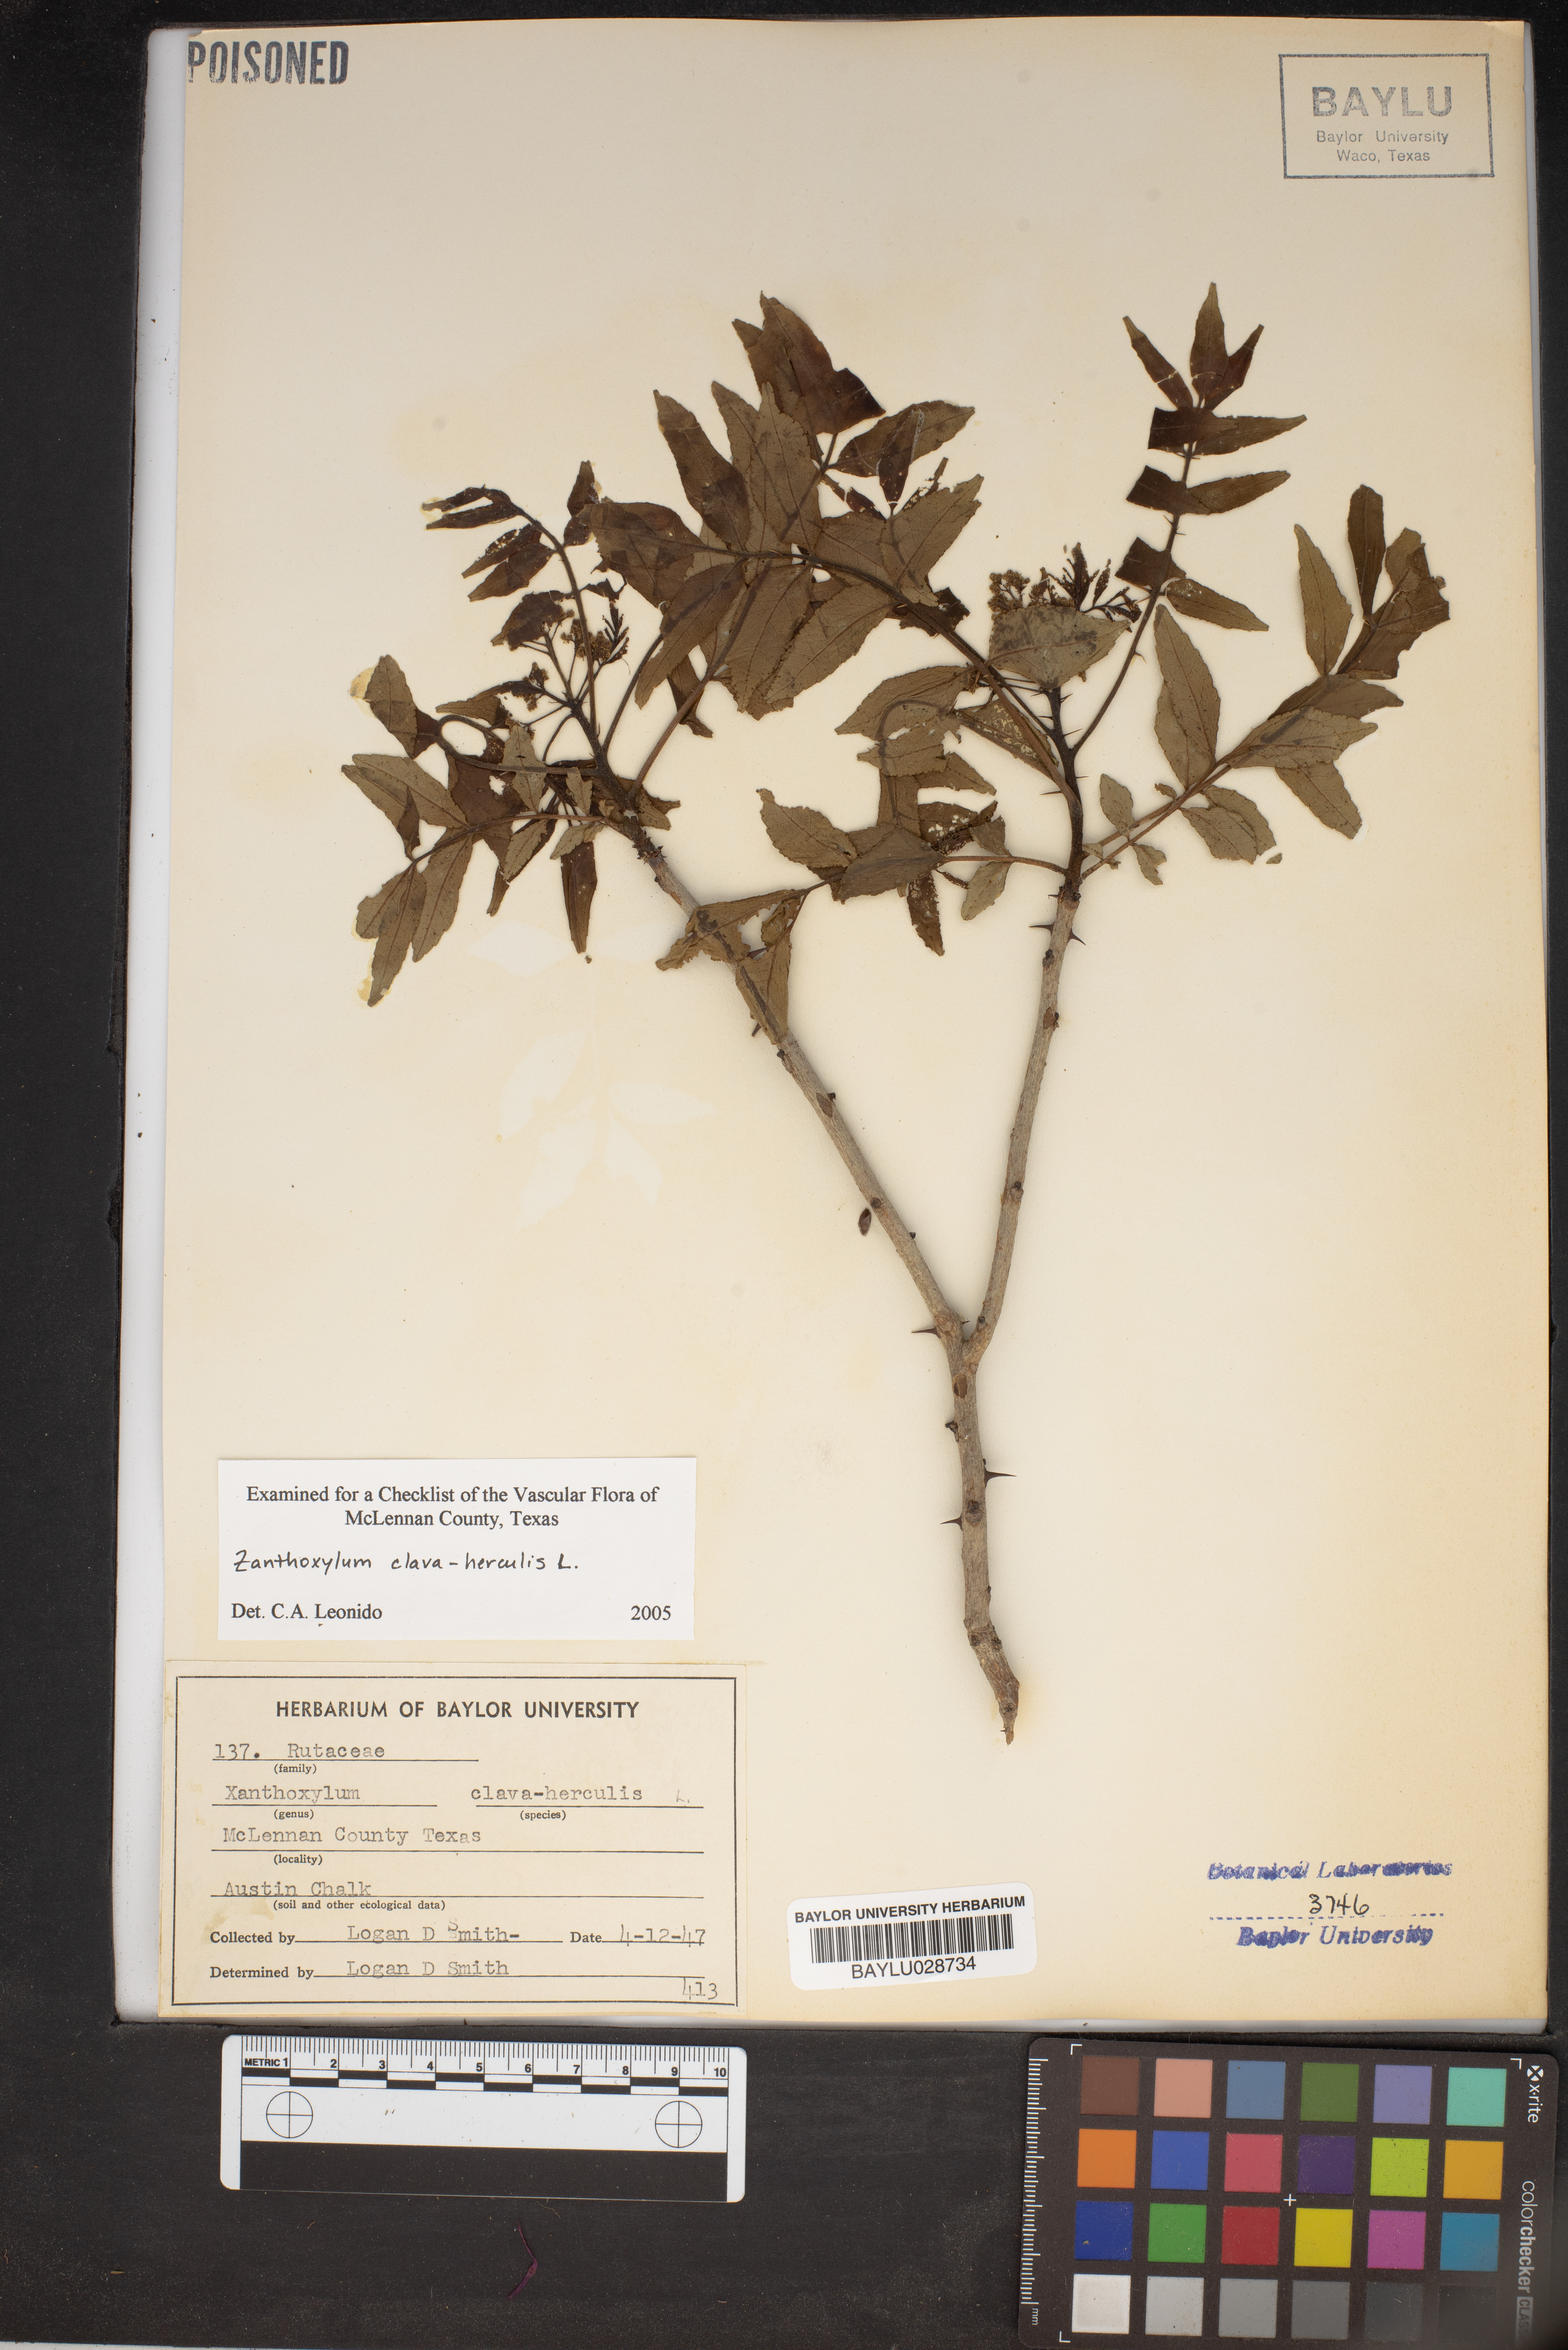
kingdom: Plantae
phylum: Tracheophyta
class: Magnoliopsida
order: Sapindales
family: Rutaceae
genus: Zanthoxylum
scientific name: Zanthoxylum avicennae
